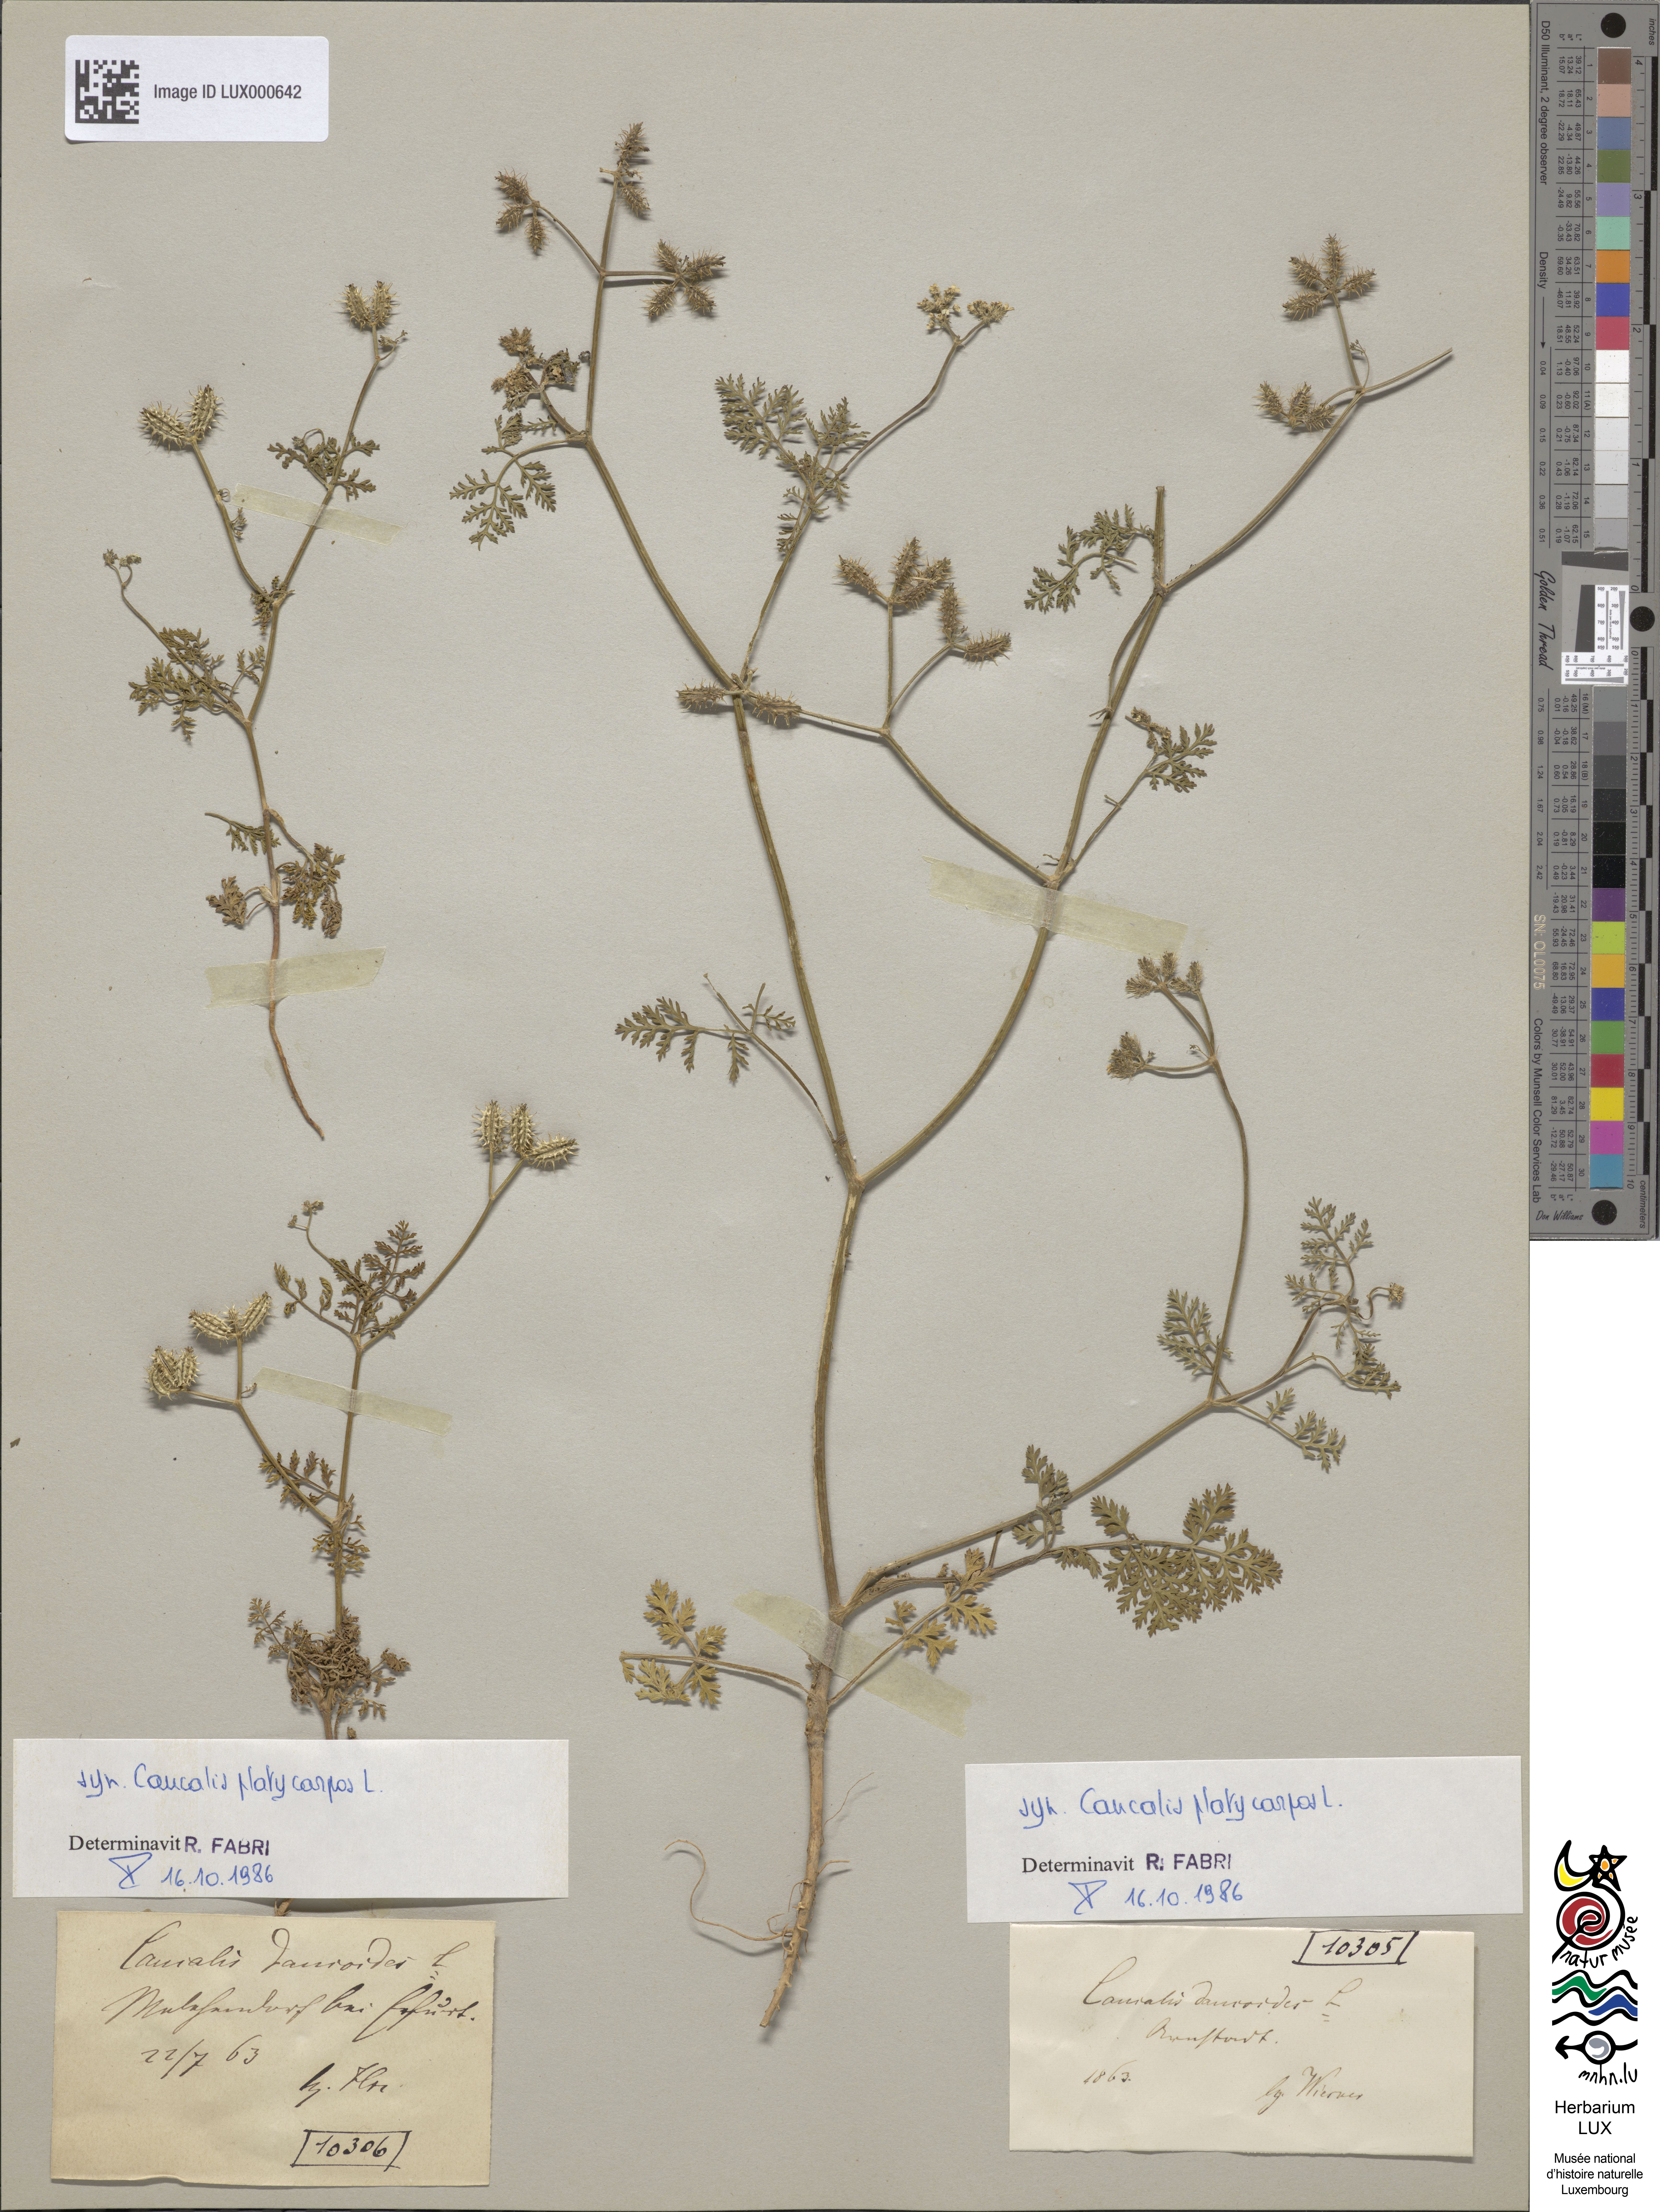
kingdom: Plantae
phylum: Tracheophyta
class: Magnoliopsida
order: Apiales
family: Apiaceae
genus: Orlaya
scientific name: Orlaya daucoides
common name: Flat-fruit orlaya
